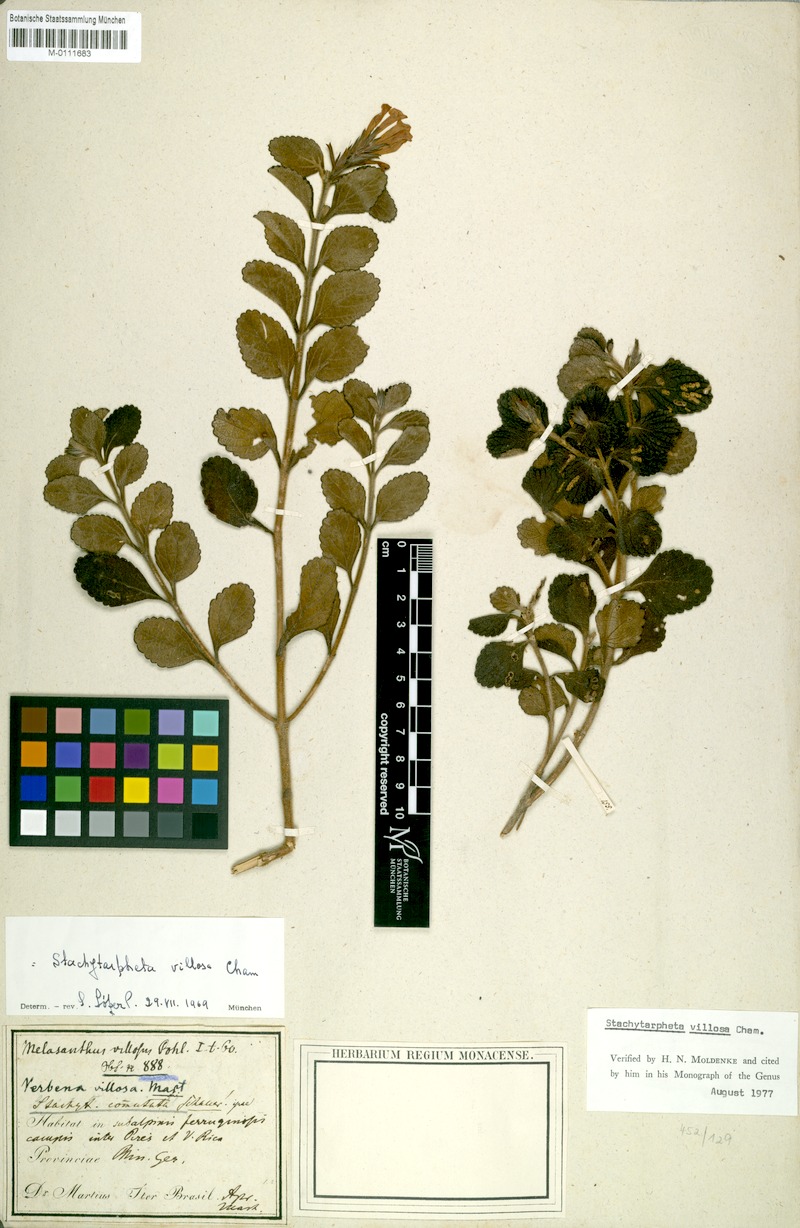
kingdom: Plantae
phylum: Tracheophyta
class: Magnoliopsida
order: Lamiales
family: Verbenaceae
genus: Stachytarpheta
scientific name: Stachytarpheta commutata
